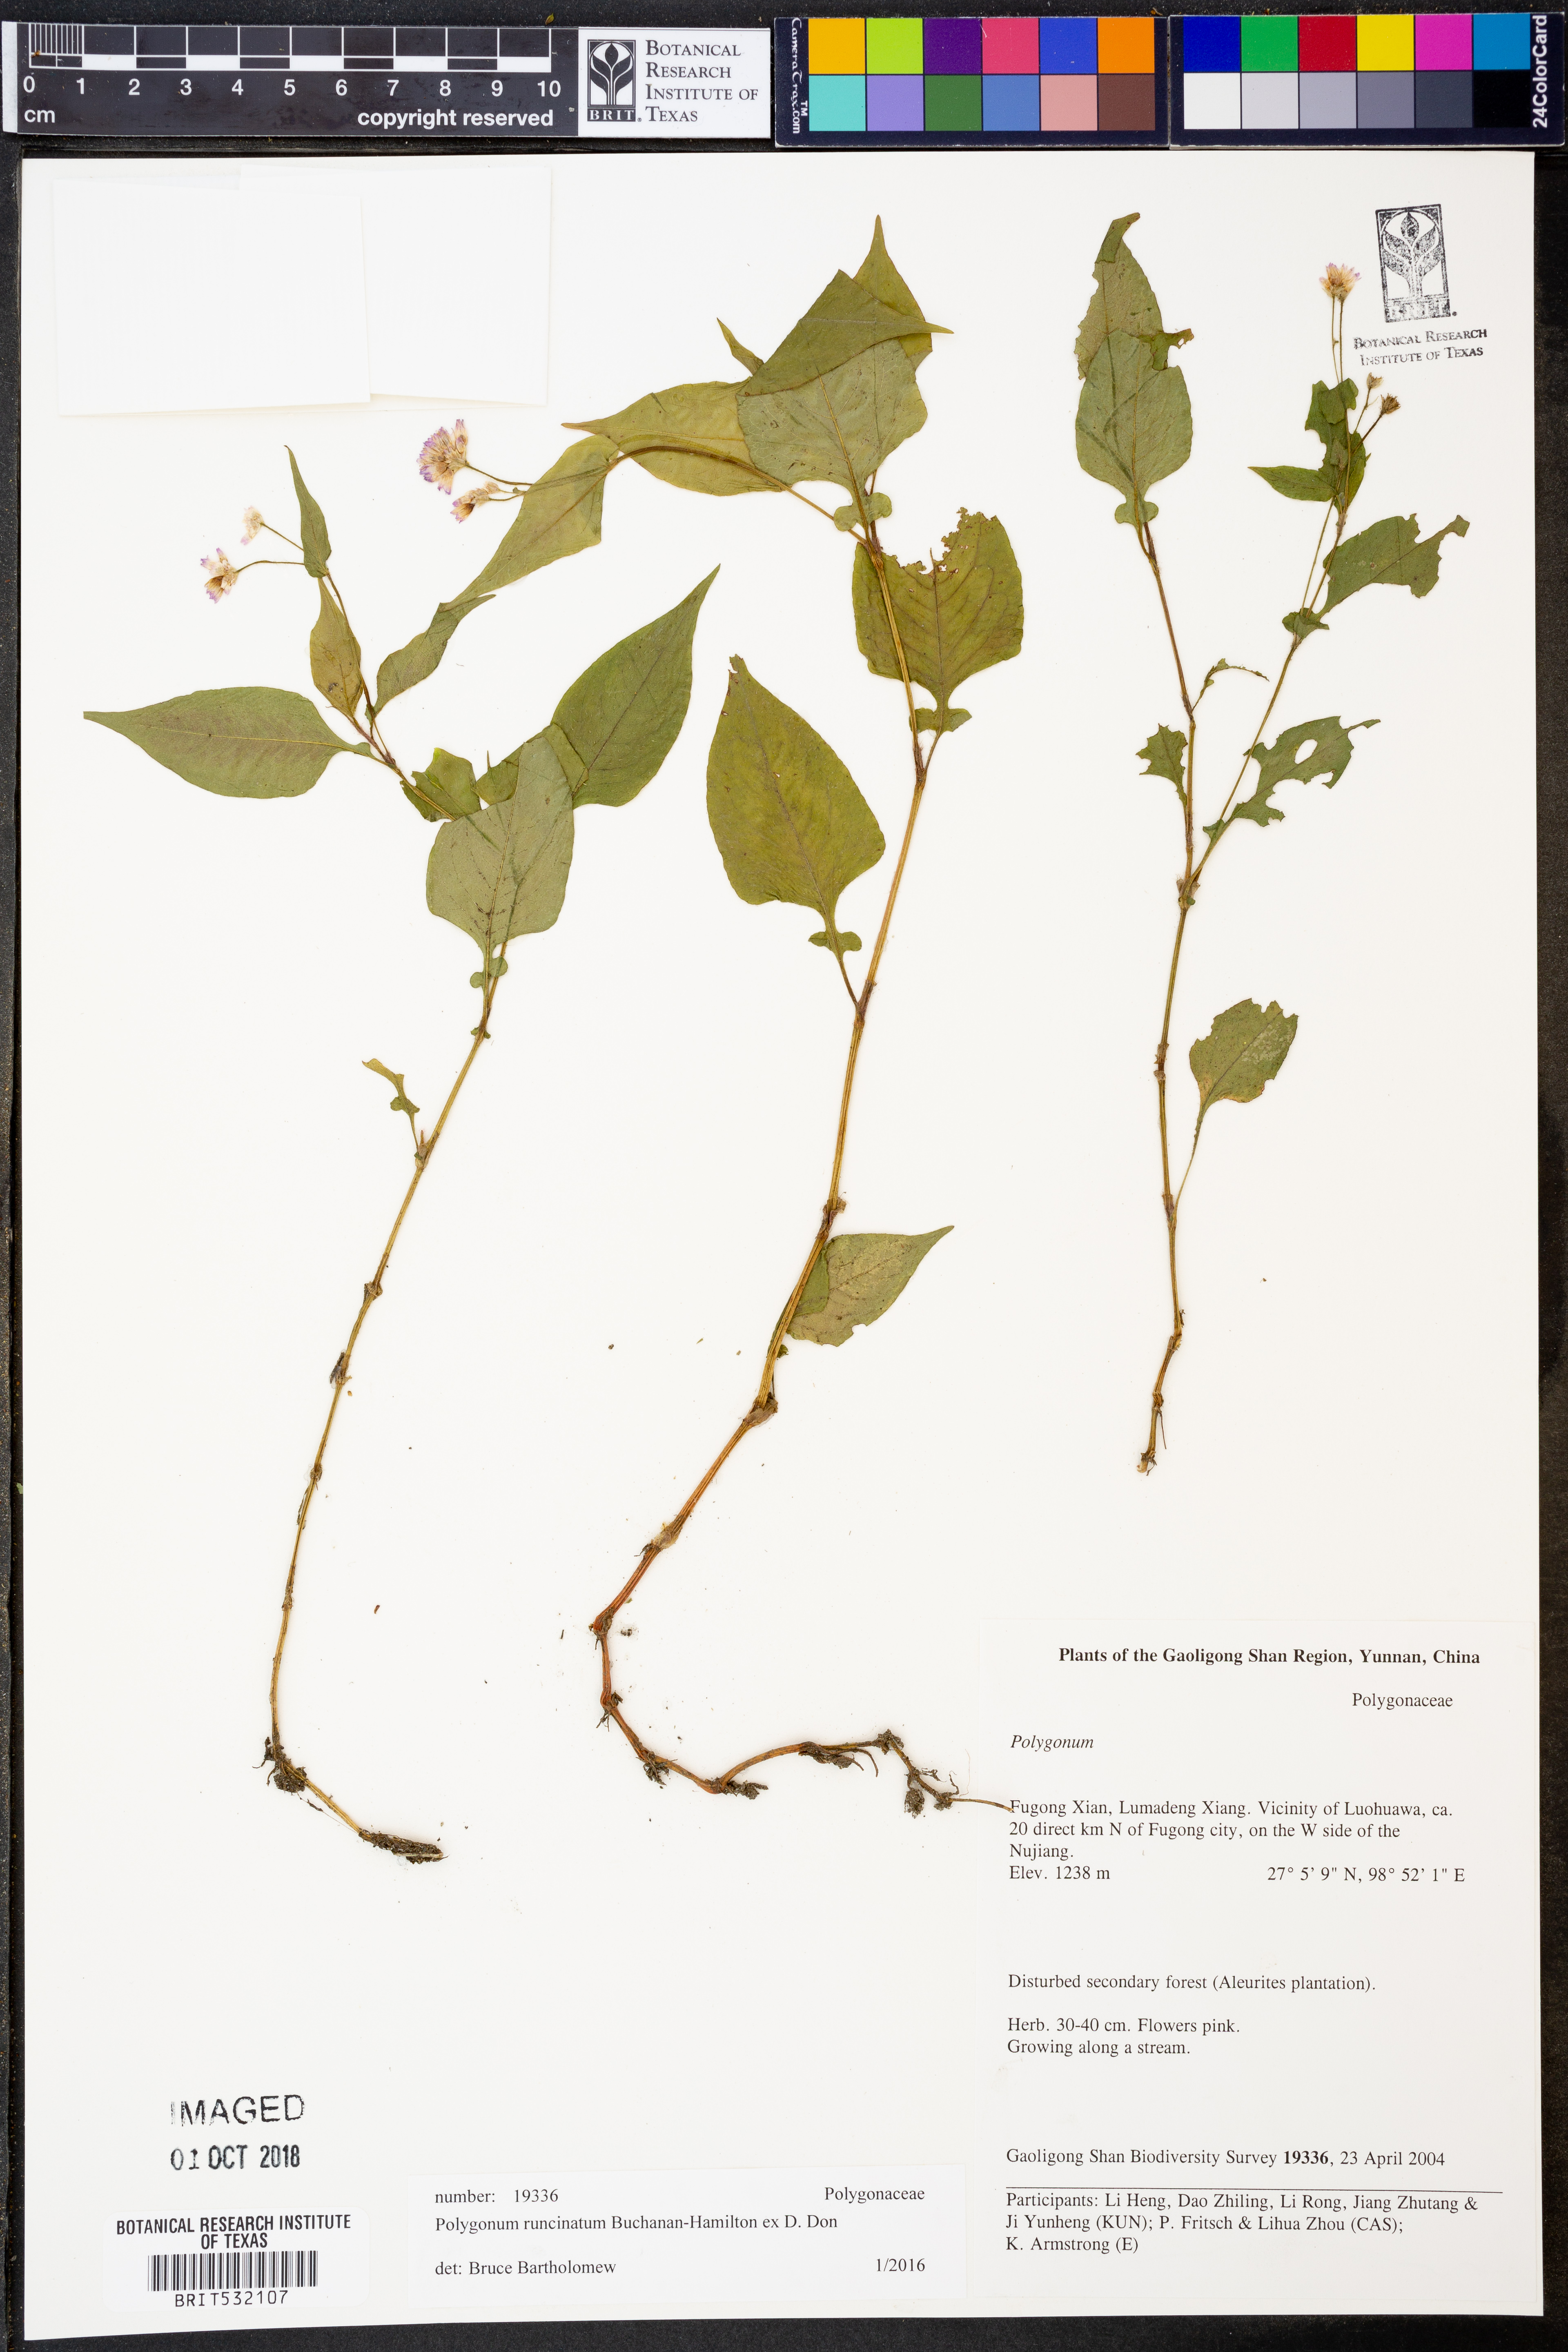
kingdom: Plantae
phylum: Tracheophyta
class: Magnoliopsida
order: Caryophyllales
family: Polygonaceae
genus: Persicaria
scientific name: Persicaria runcinata
